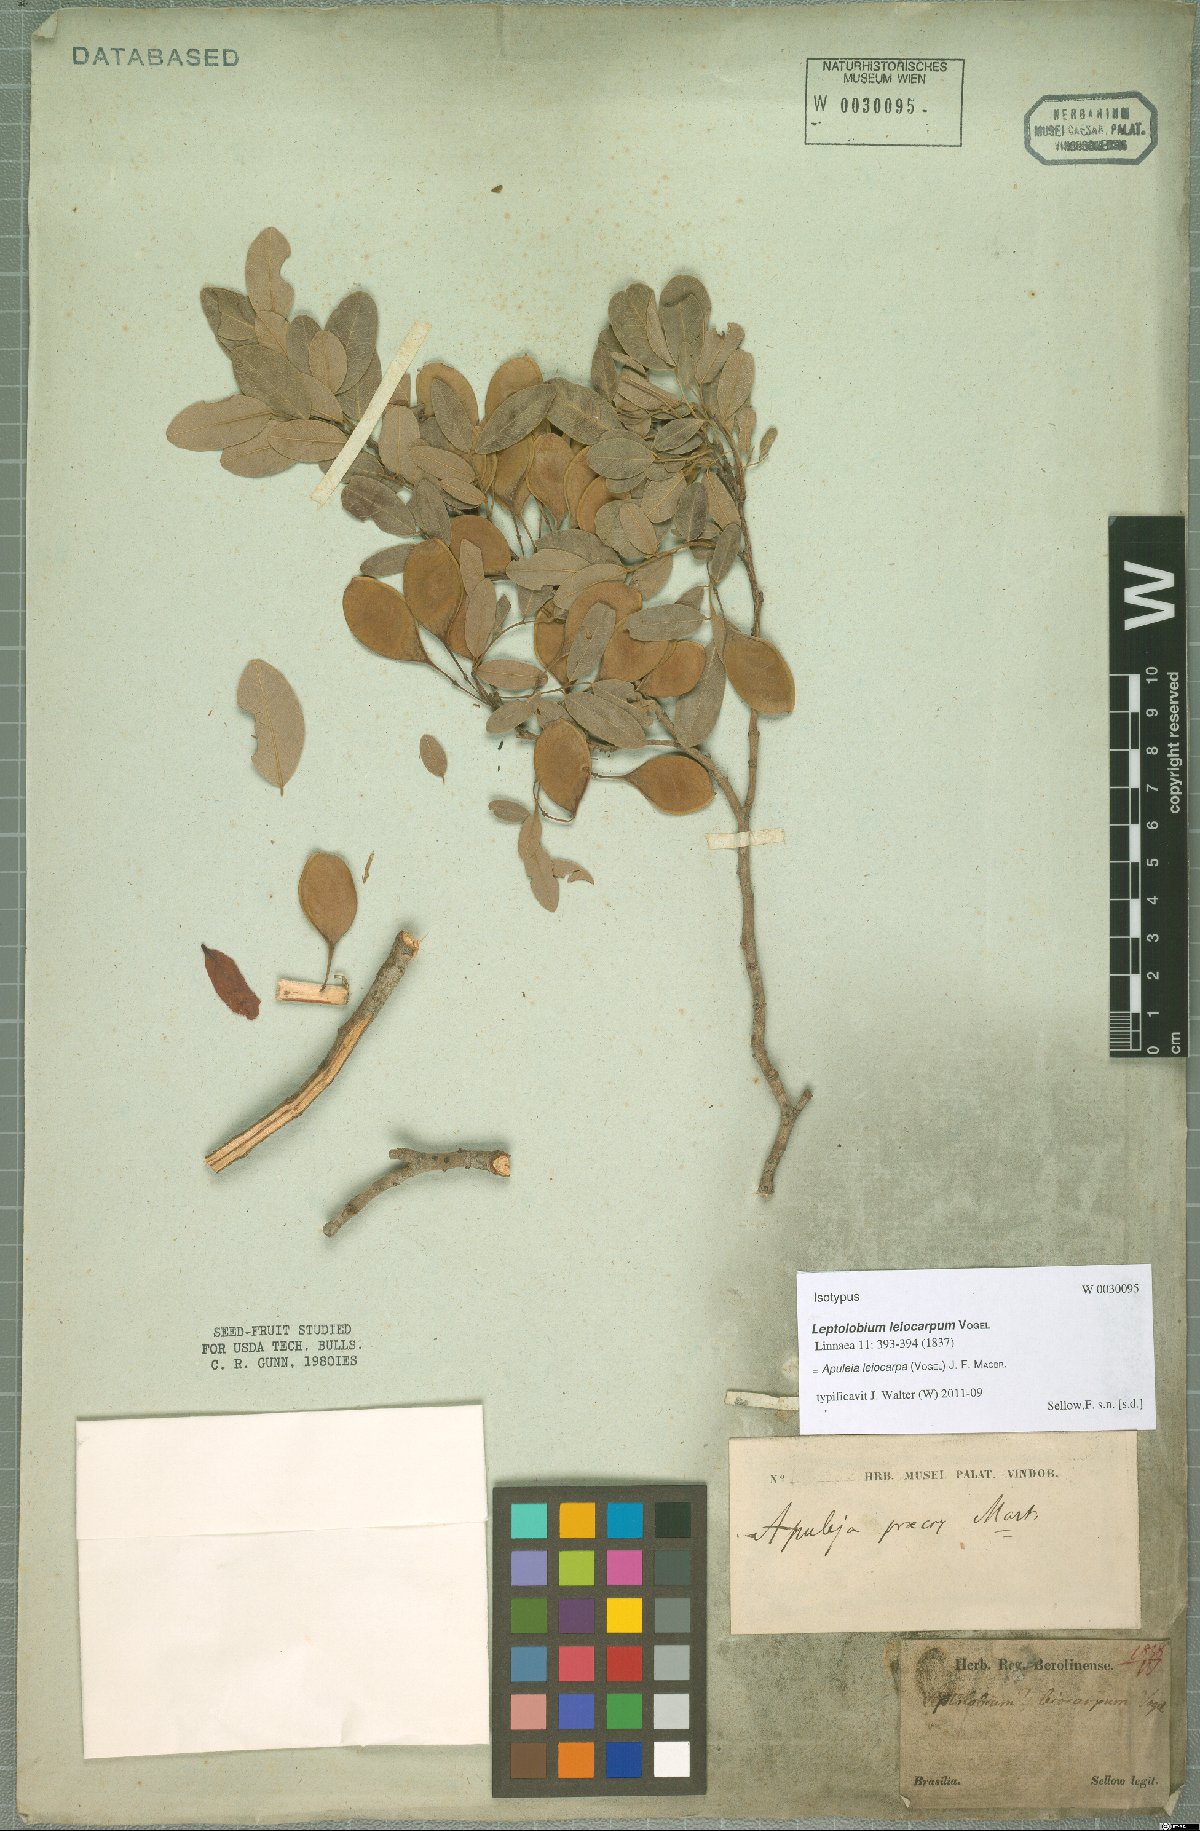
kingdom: Plantae
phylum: Tracheophyta
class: Magnoliopsida
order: Fabales
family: Fabaceae
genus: Apuleia
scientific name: Apuleia leiocarpa
